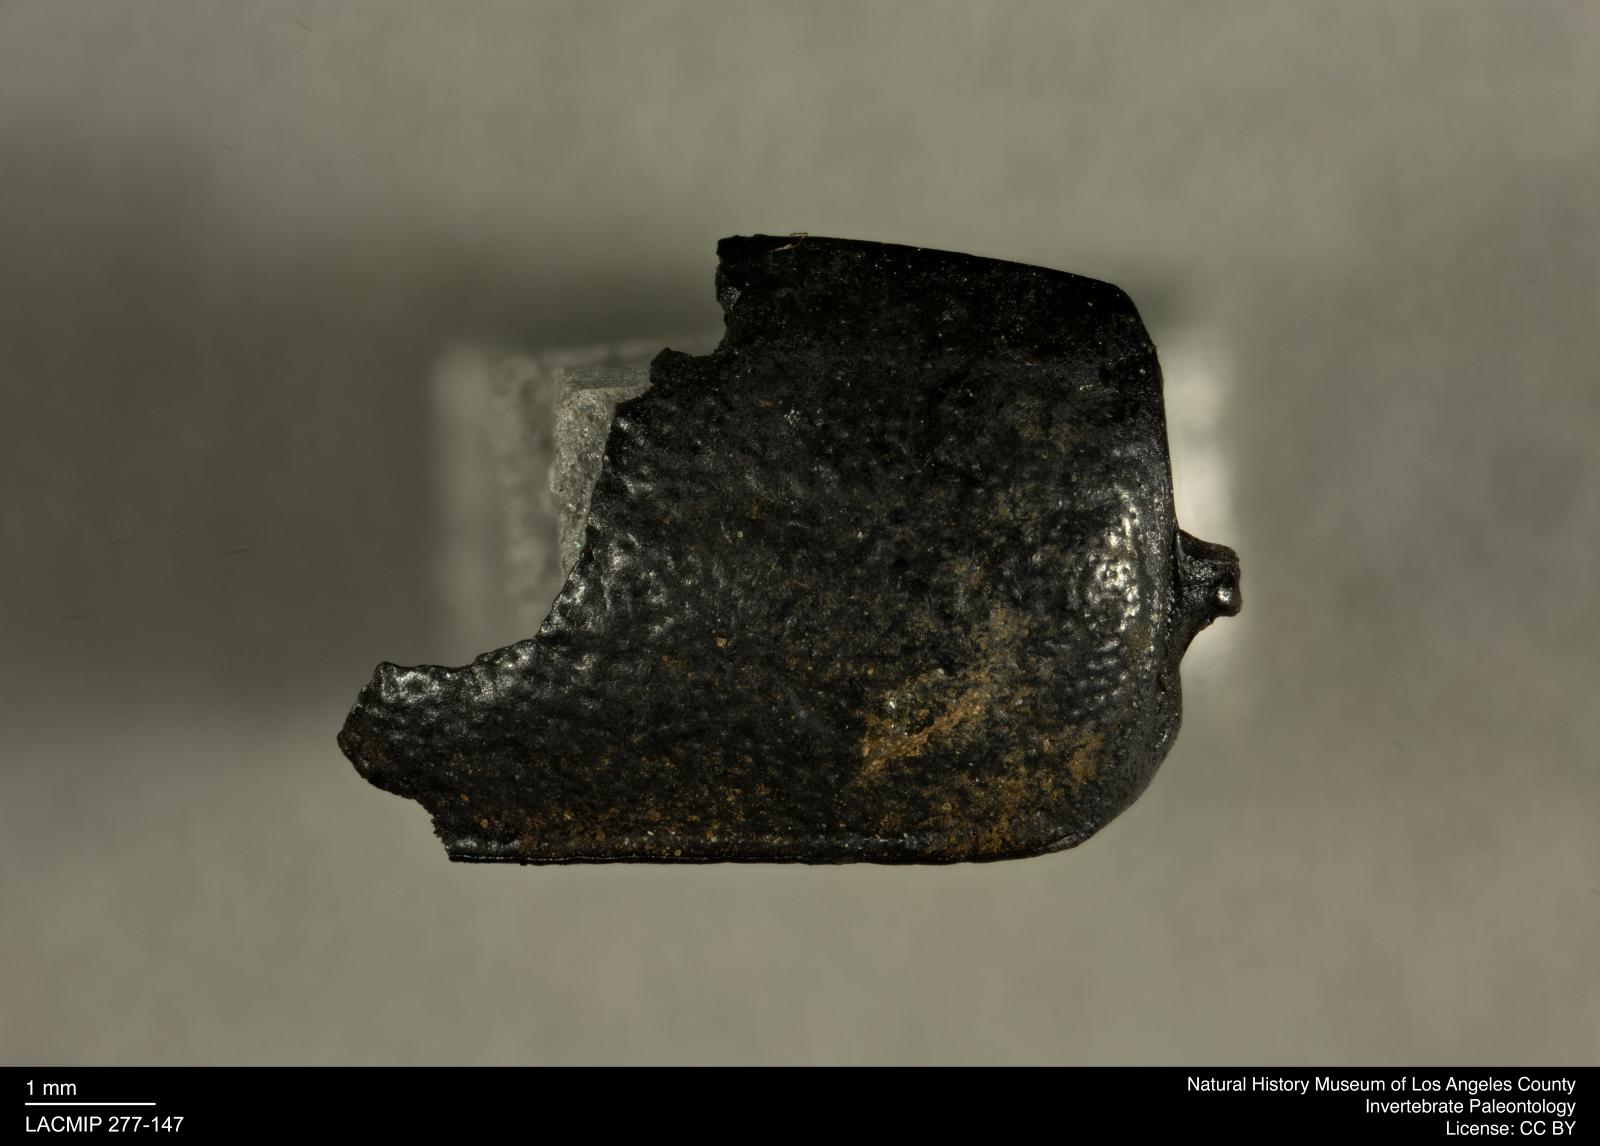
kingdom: Animalia
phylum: Arthropoda
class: Insecta
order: Coleoptera
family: Tenebrionidae
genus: Coniontis
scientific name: Coniontis abdominalis
